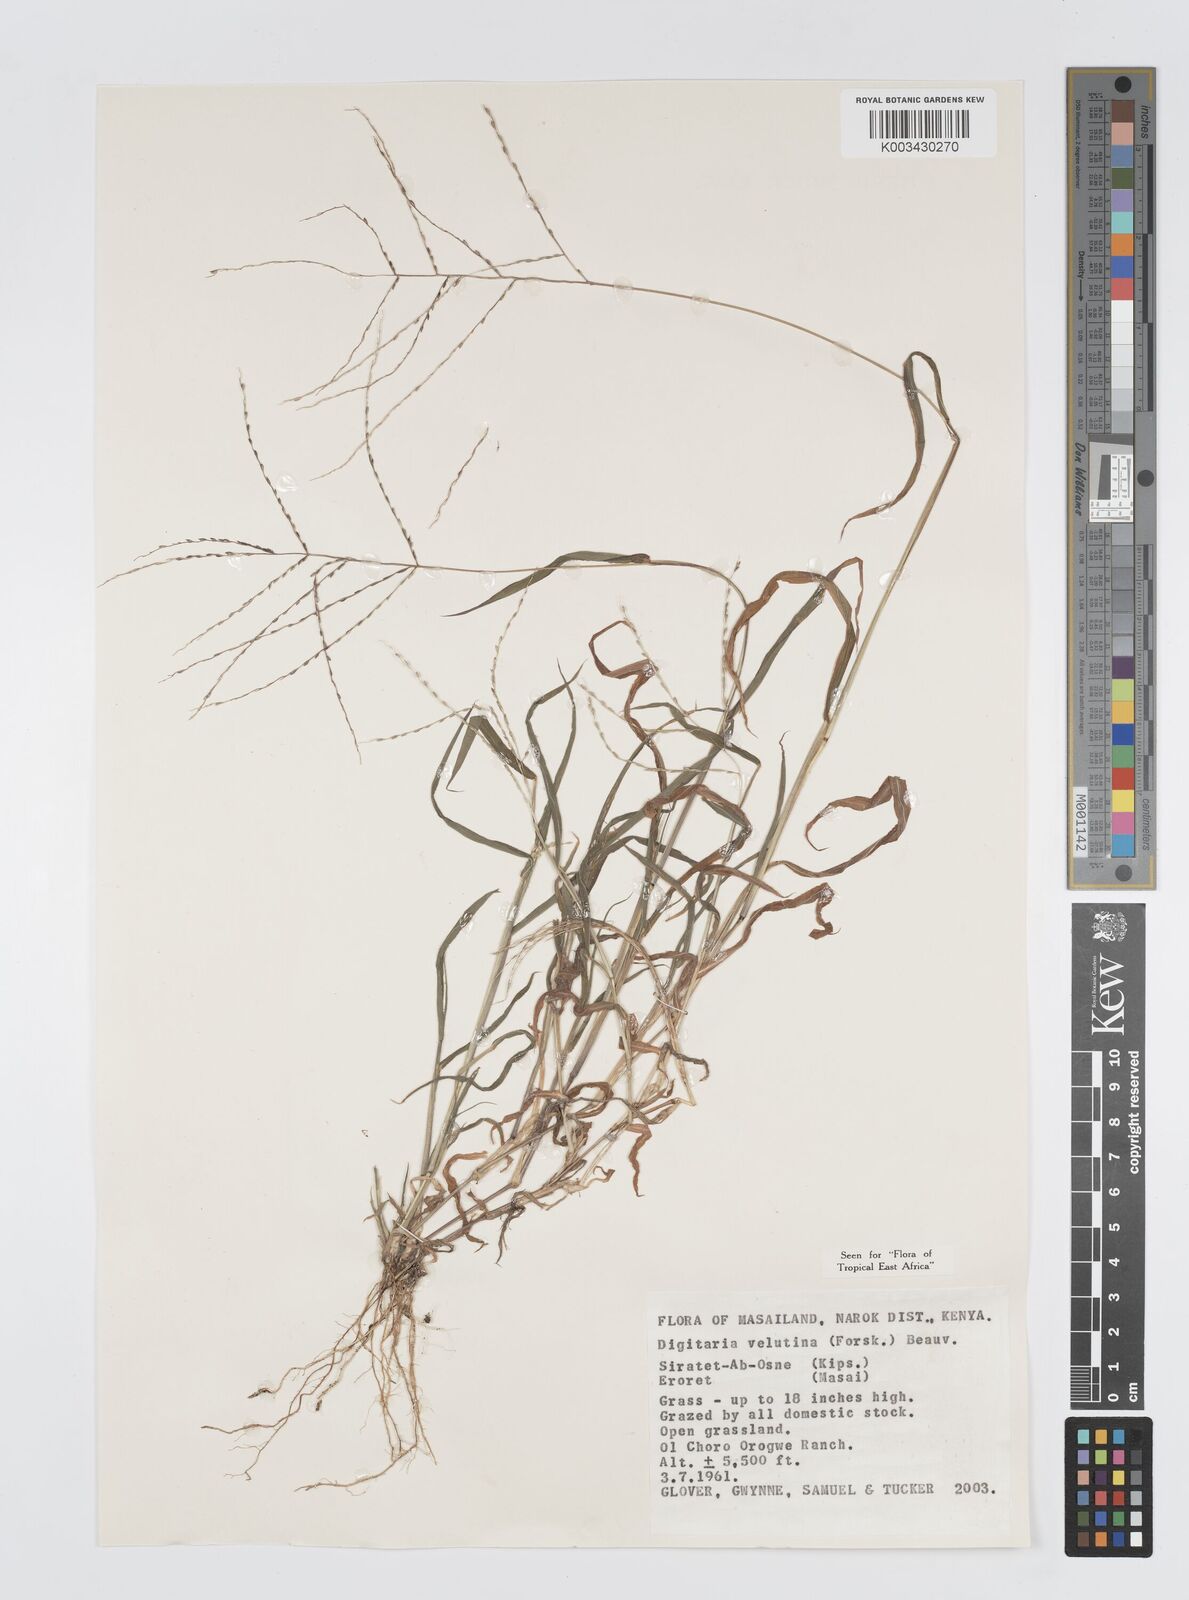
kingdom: Plantae
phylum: Tracheophyta
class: Liliopsida
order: Poales
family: Poaceae
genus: Digitaria
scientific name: Digitaria velutina
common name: Long-plume finger grass
